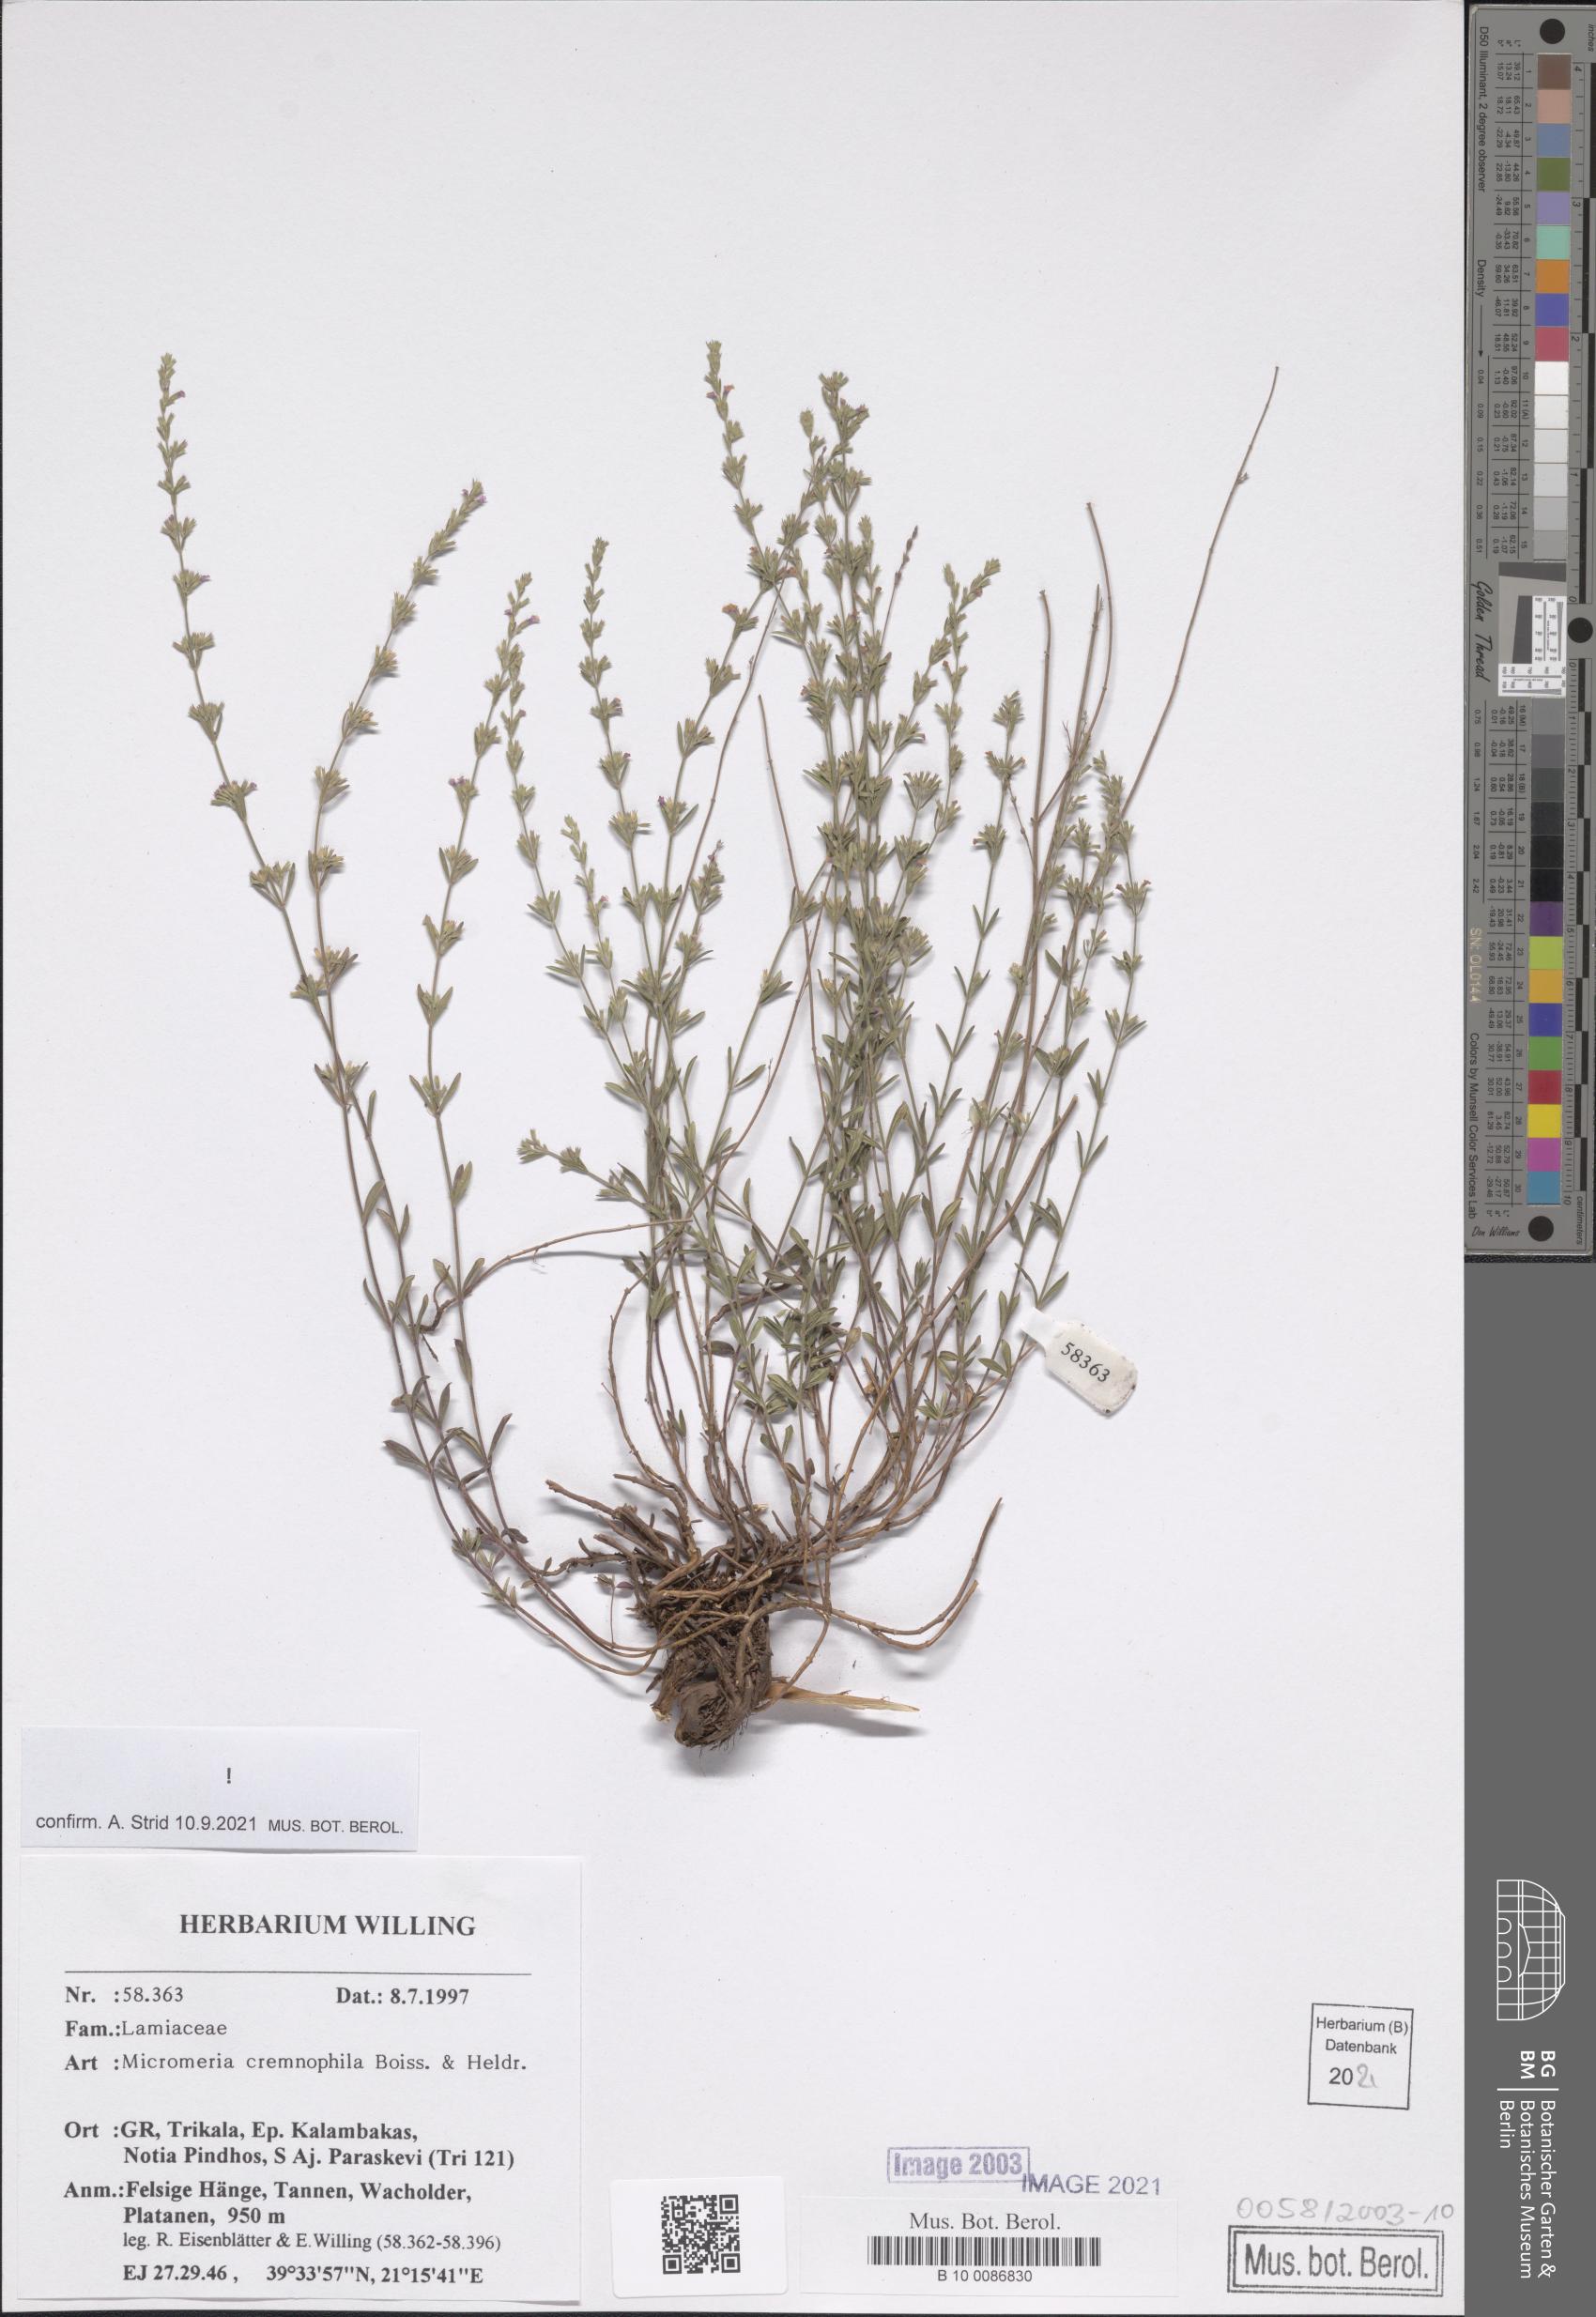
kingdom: Plantae
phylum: Tracheophyta
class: Magnoliopsida
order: Lamiales
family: Lamiaceae
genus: Micromeria
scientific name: Micromeria cremnophila
